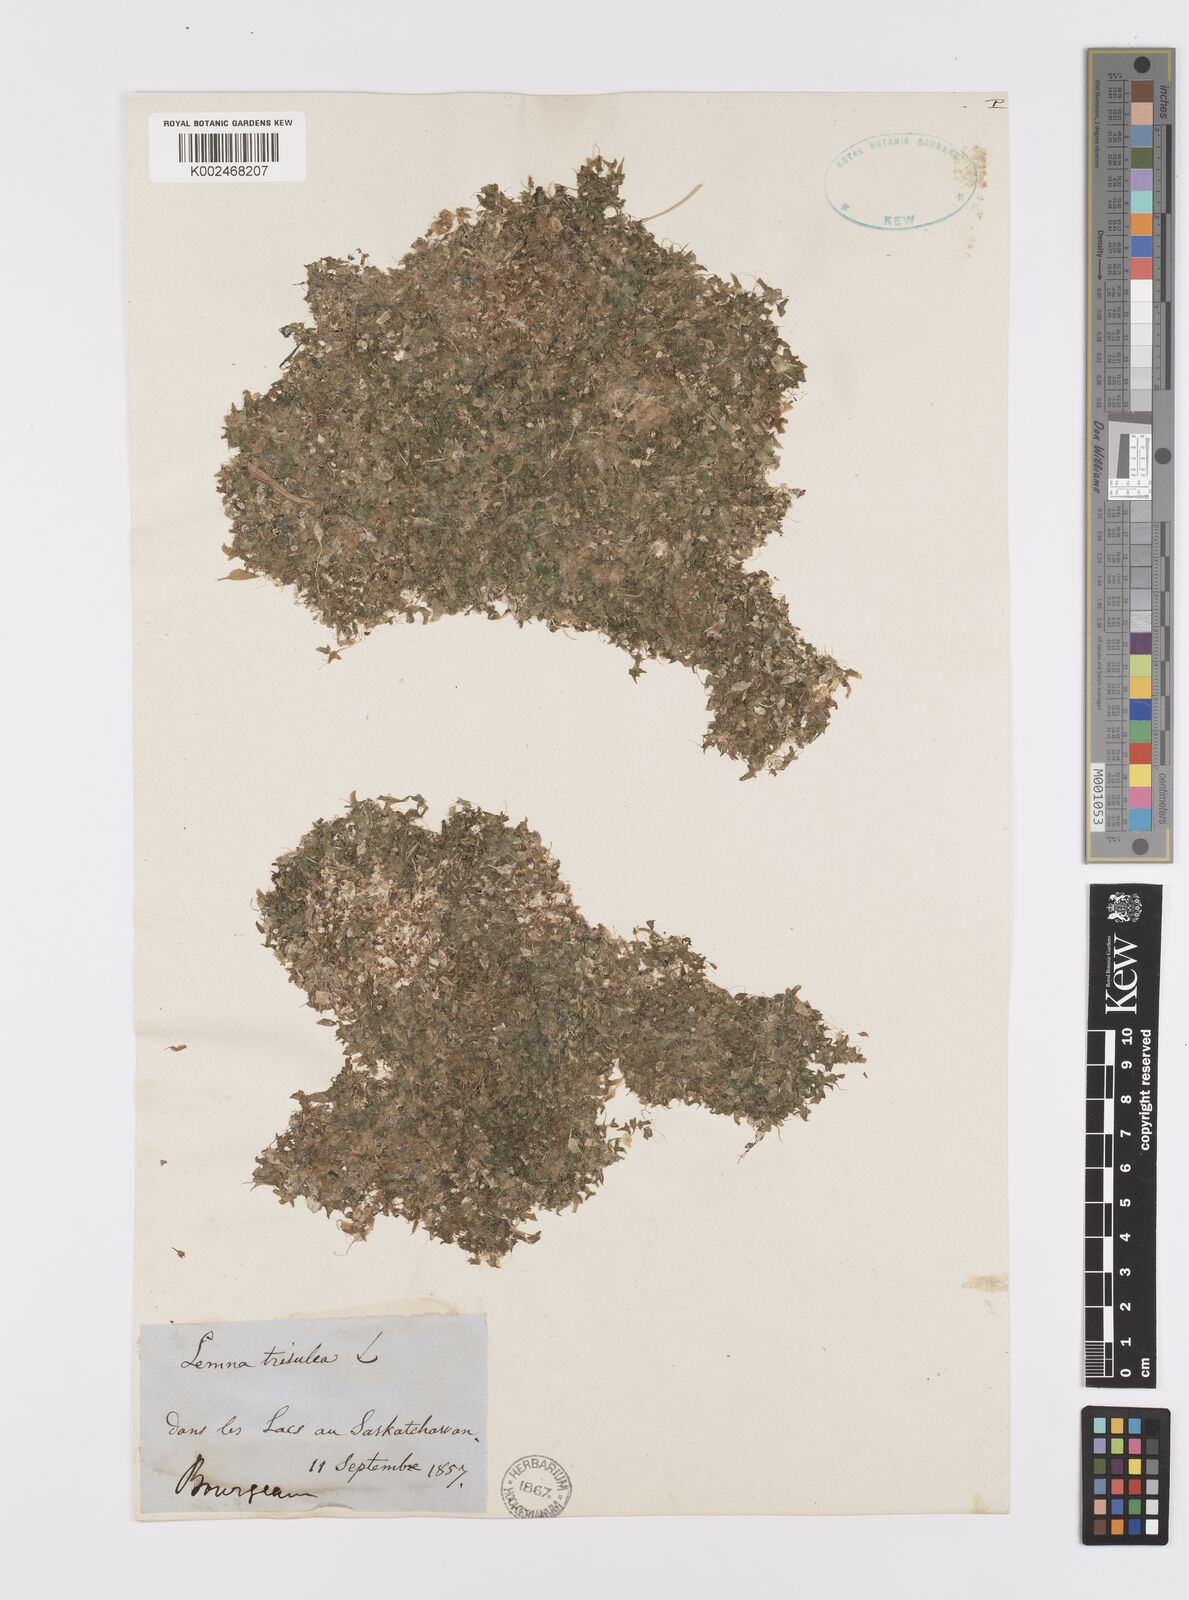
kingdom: Plantae
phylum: Tracheophyta
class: Liliopsida
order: Alismatales
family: Araceae
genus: Lemna
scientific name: Lemna trisulca
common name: Ivy-leaved duckweed
